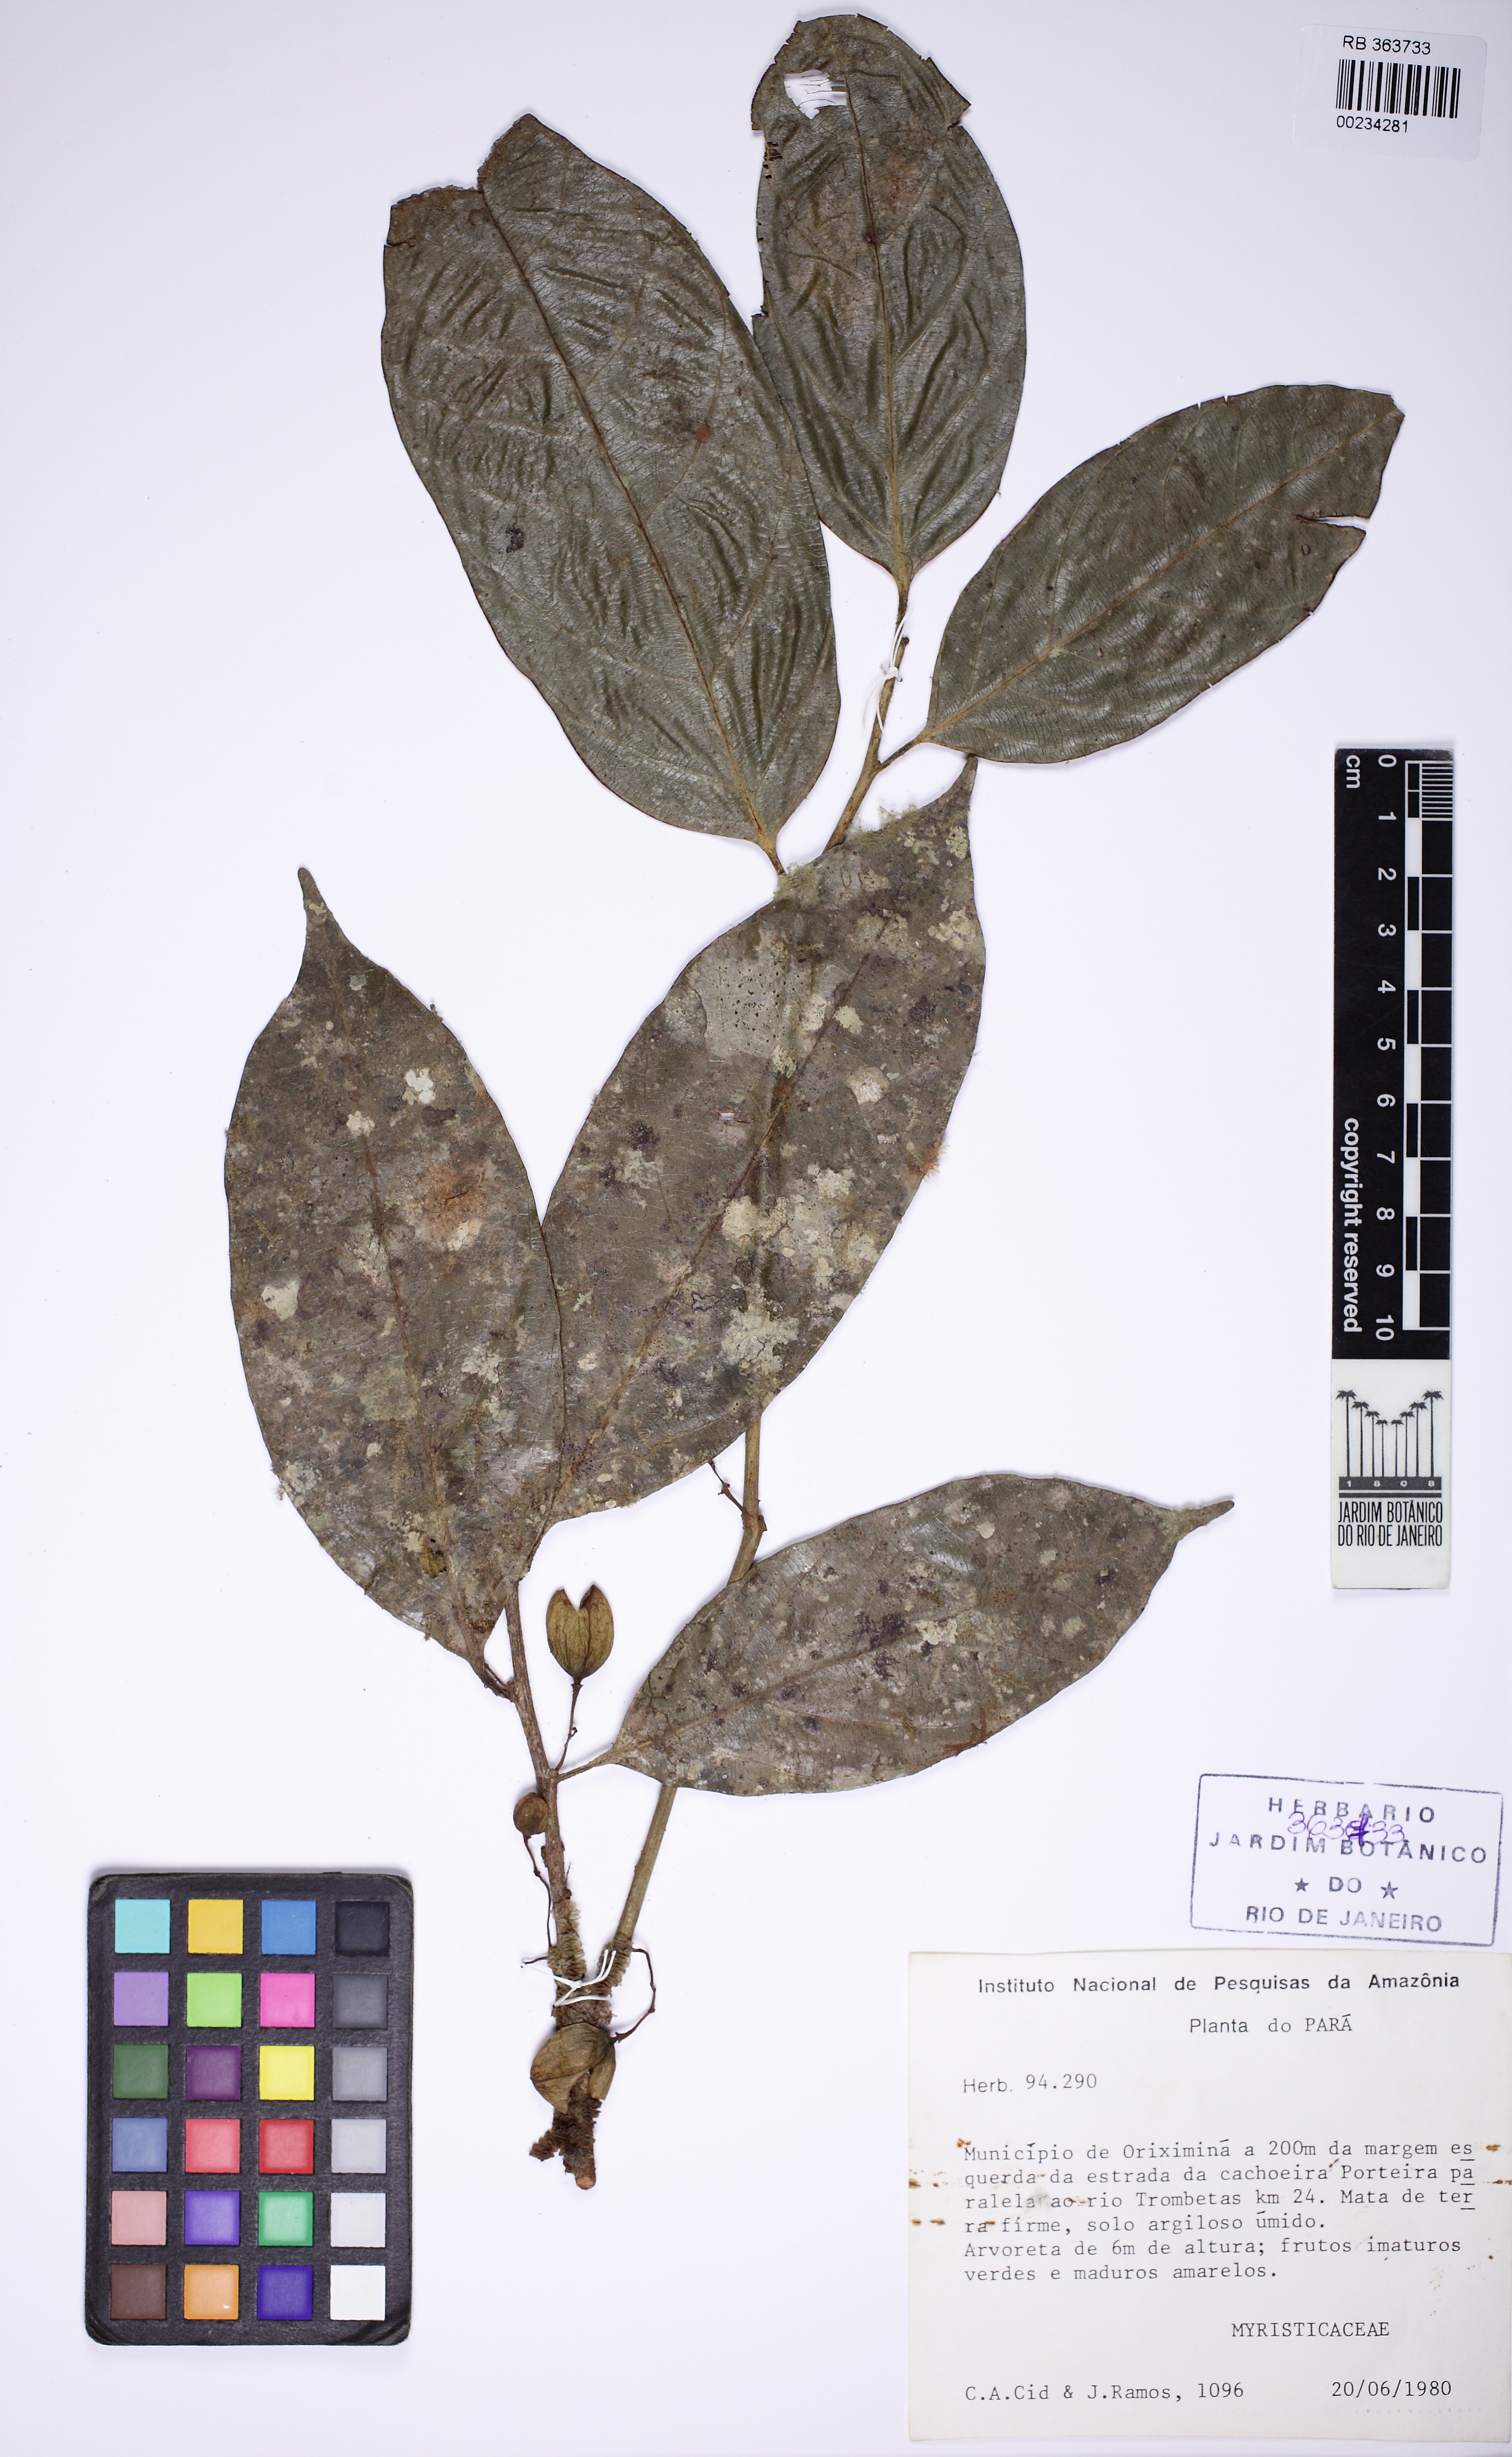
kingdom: Plantae
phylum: Tracheophyta
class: Magnoliopsida
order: Magnoliales
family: Myristicaceae
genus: Compsoneura
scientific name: Compsoneura ulei
